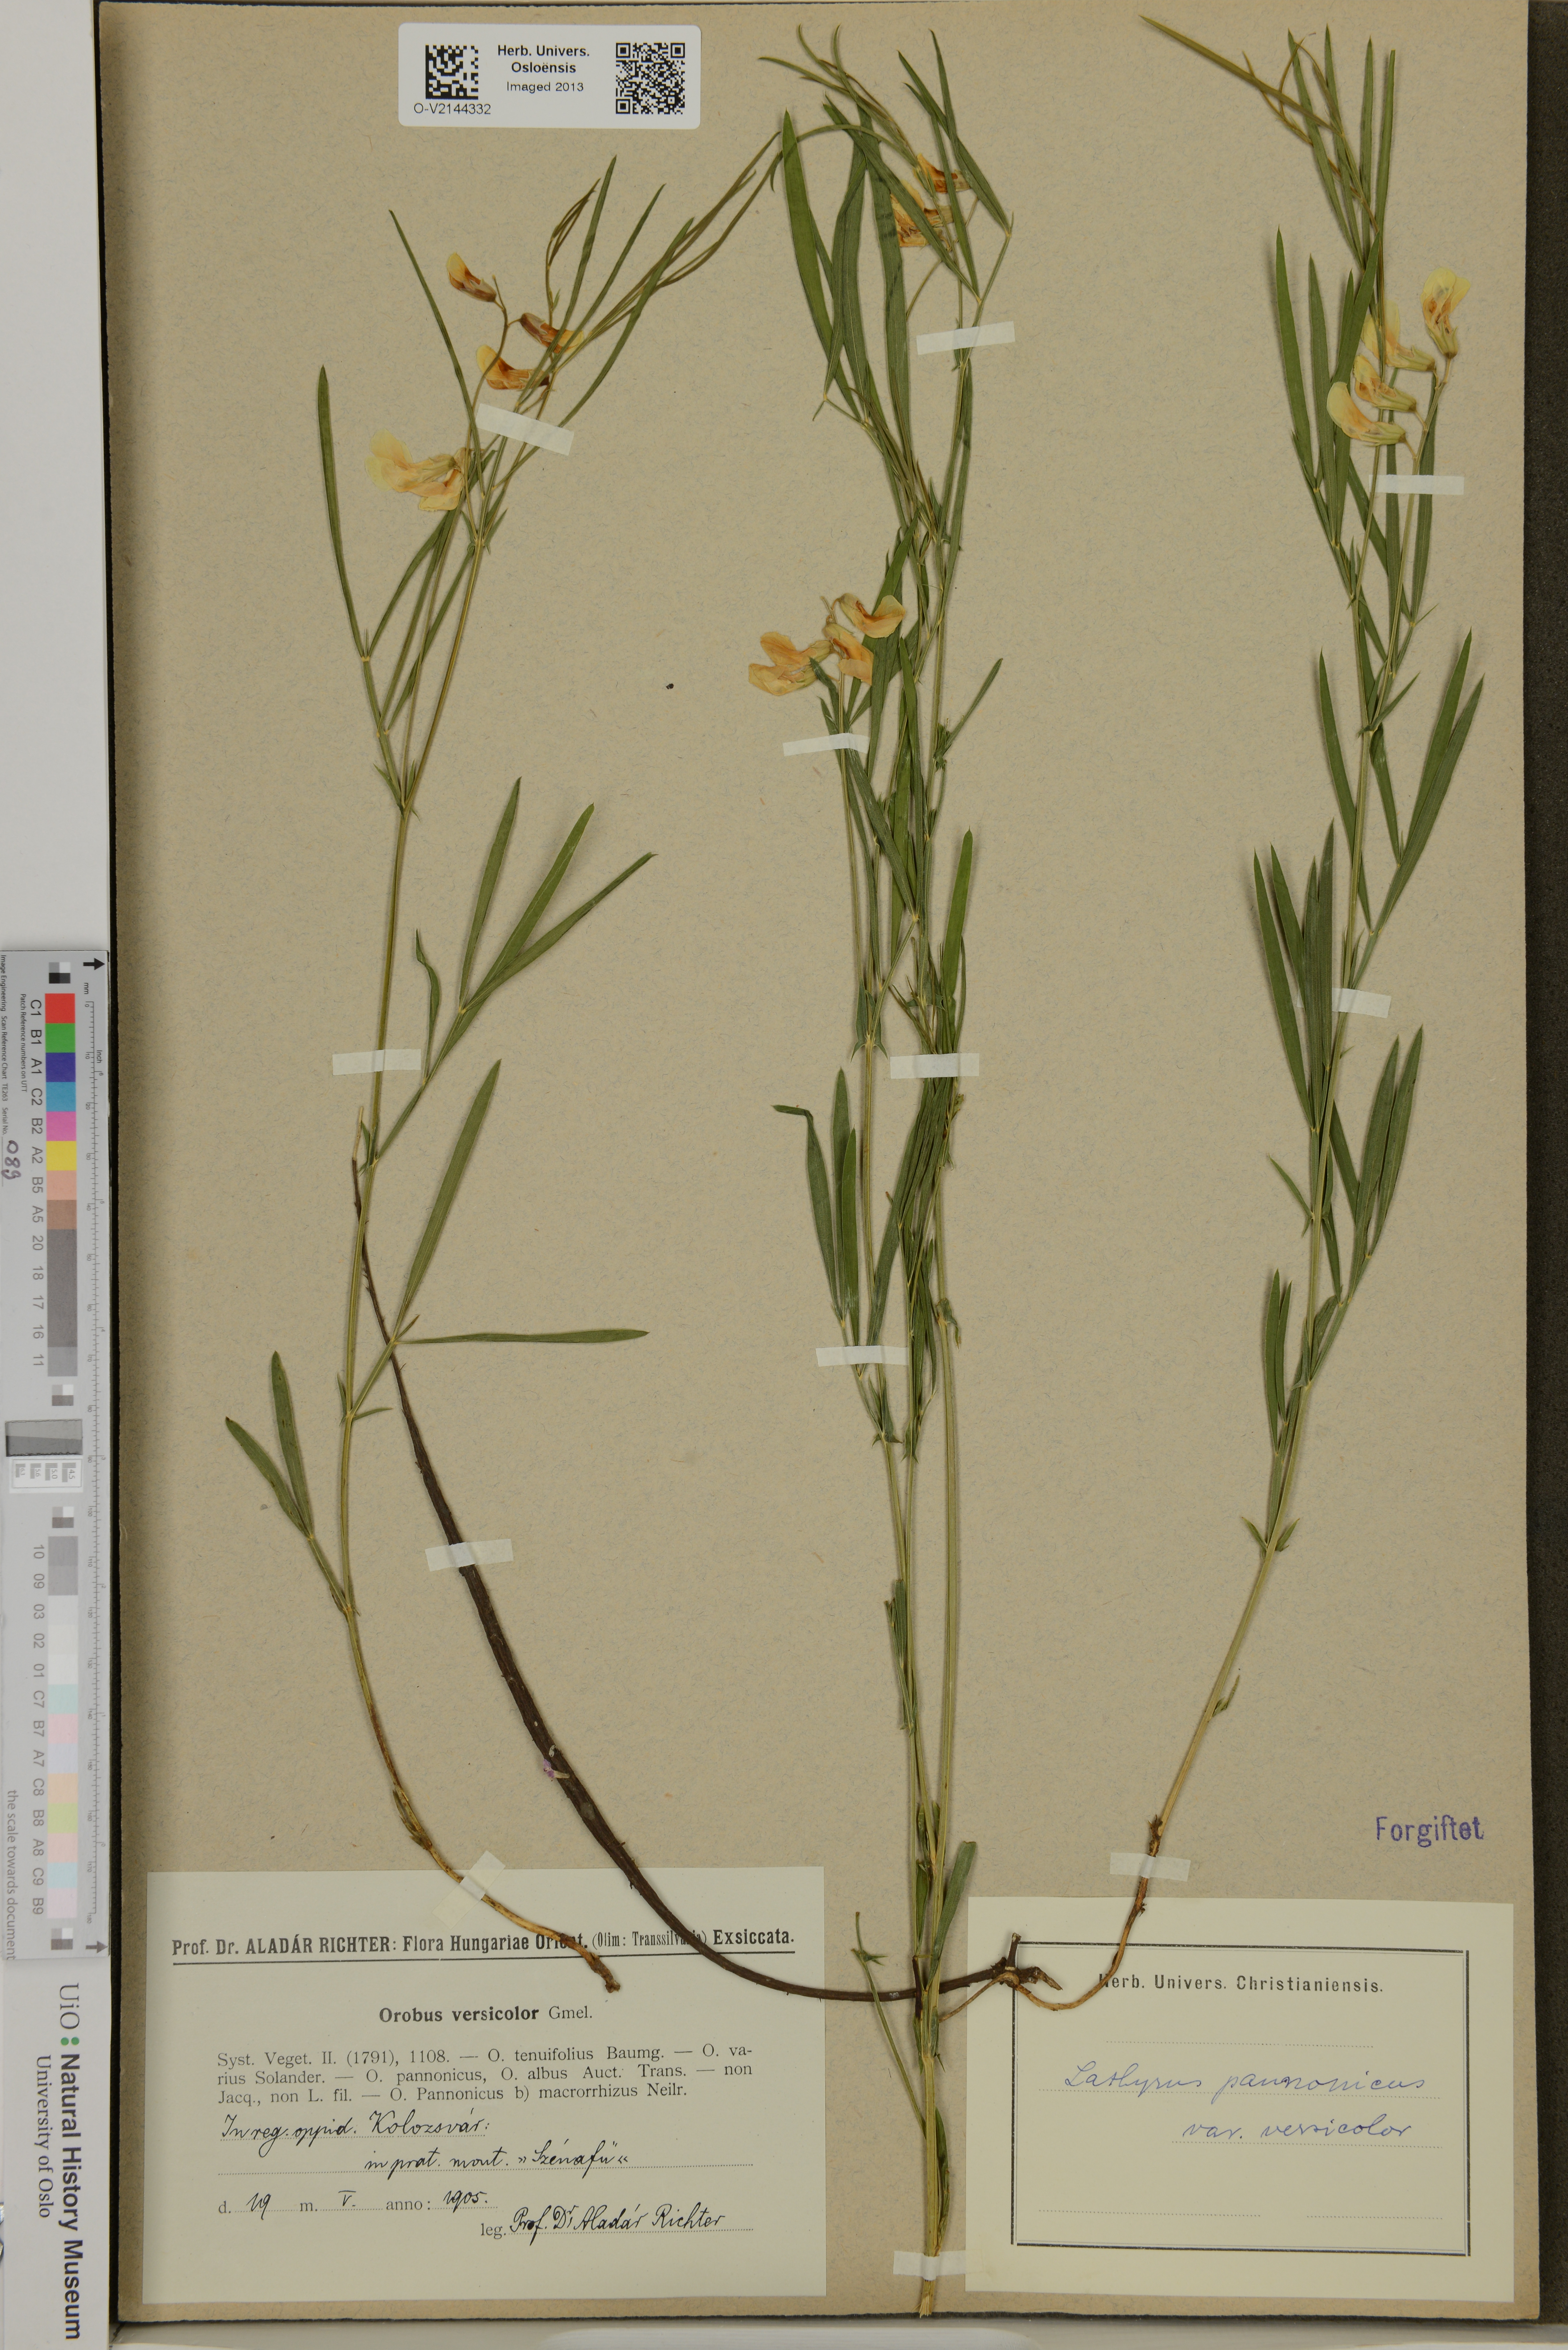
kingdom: Plantae
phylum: Tracheophyta
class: Magnoliopsida
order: Fabales
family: Fabaceae
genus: Lathyrus
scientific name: Lathyrus pannonicus
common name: Pea
